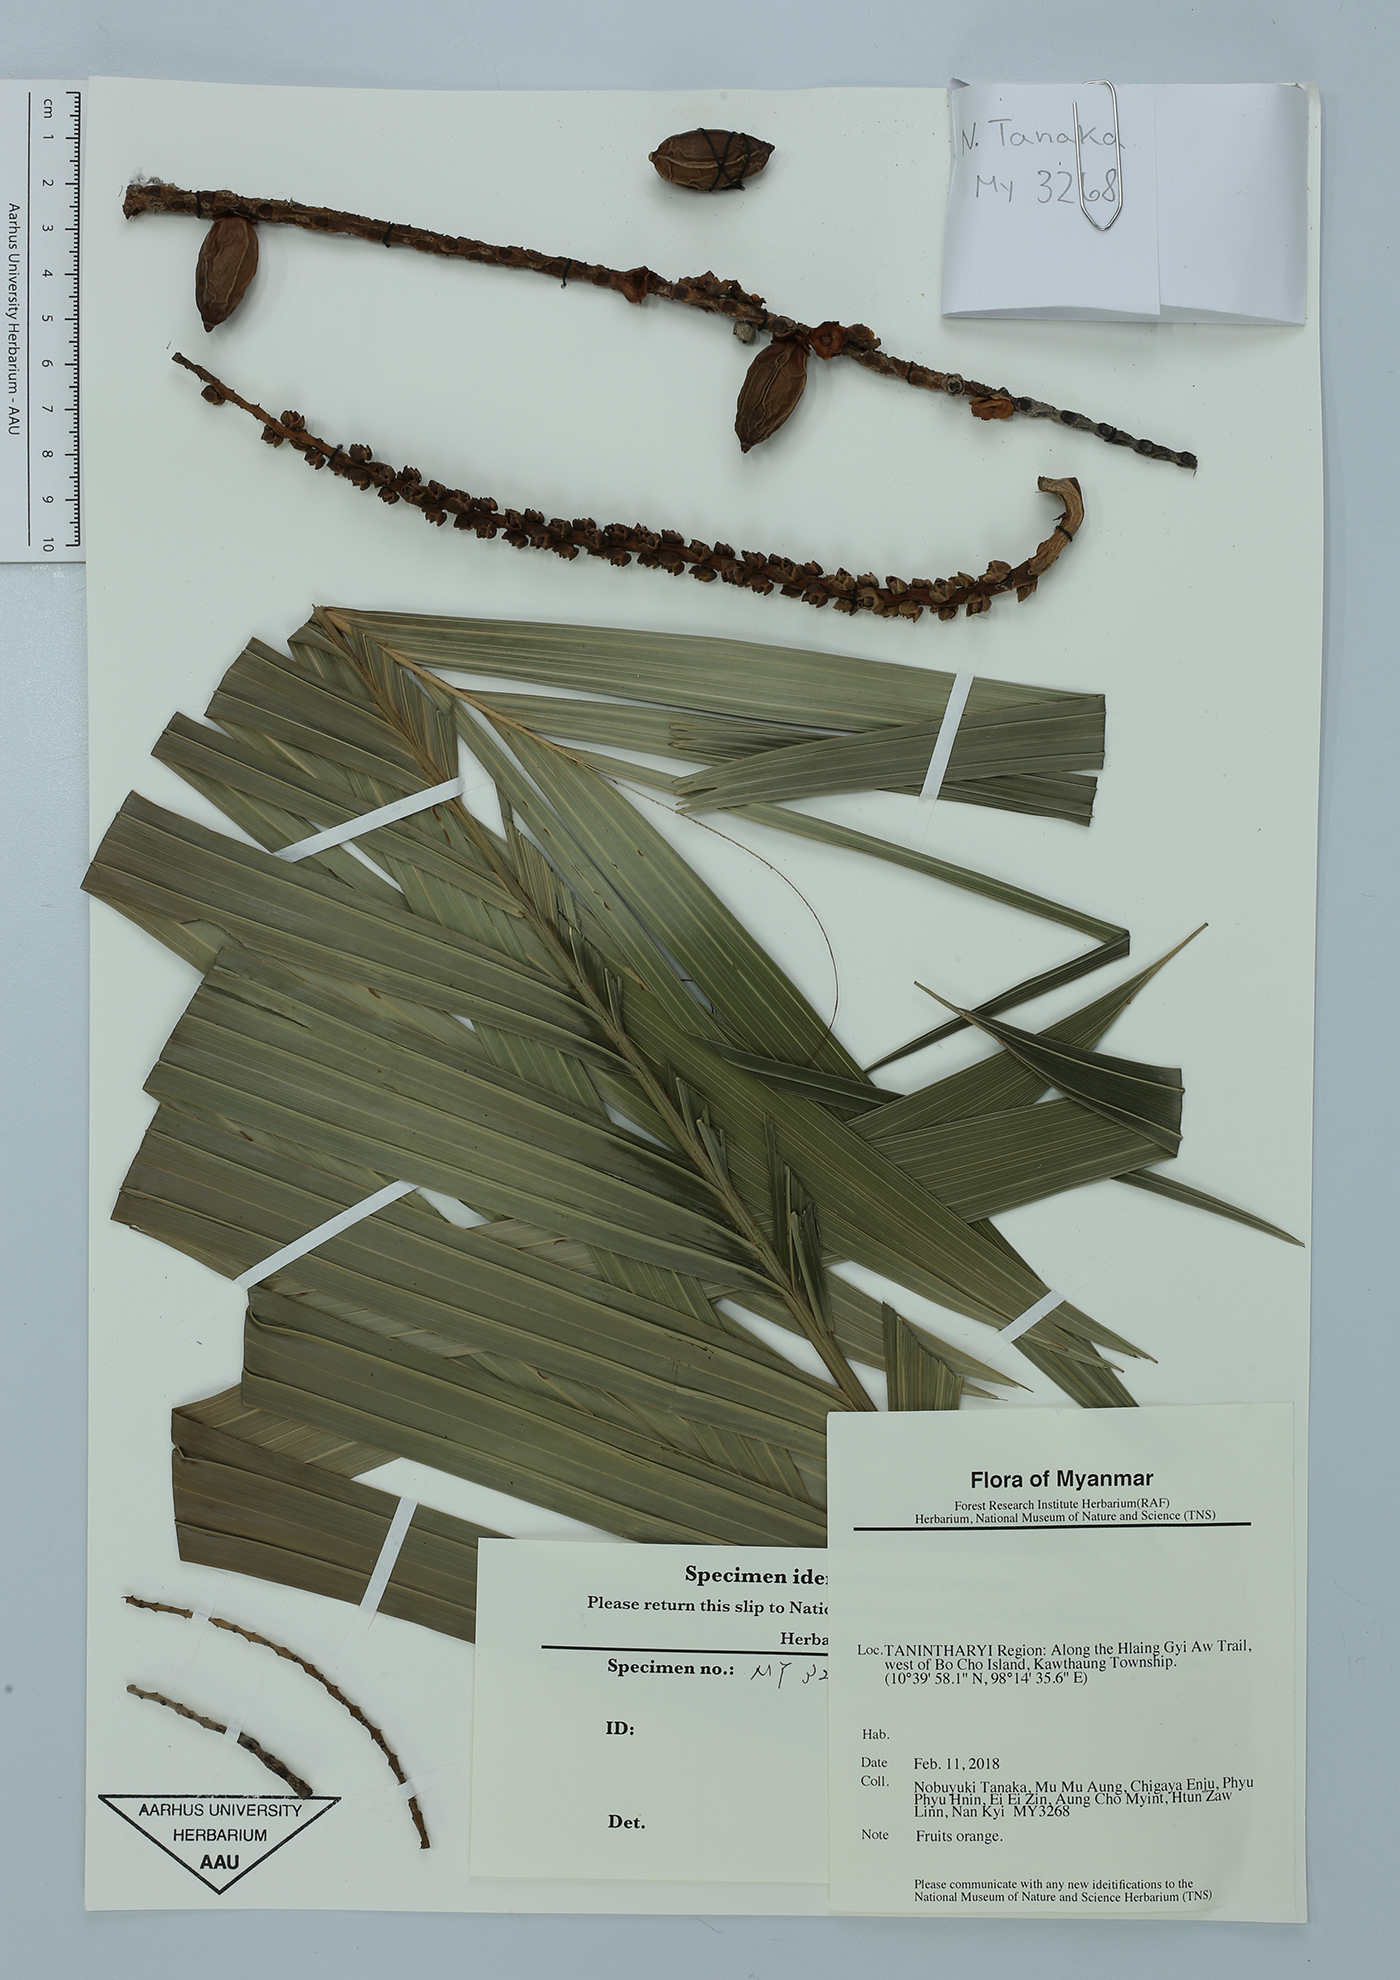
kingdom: Plantae
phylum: Tracheophyta
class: Liliopsida
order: Arecales
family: Arecaceae
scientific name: Arecaceae
